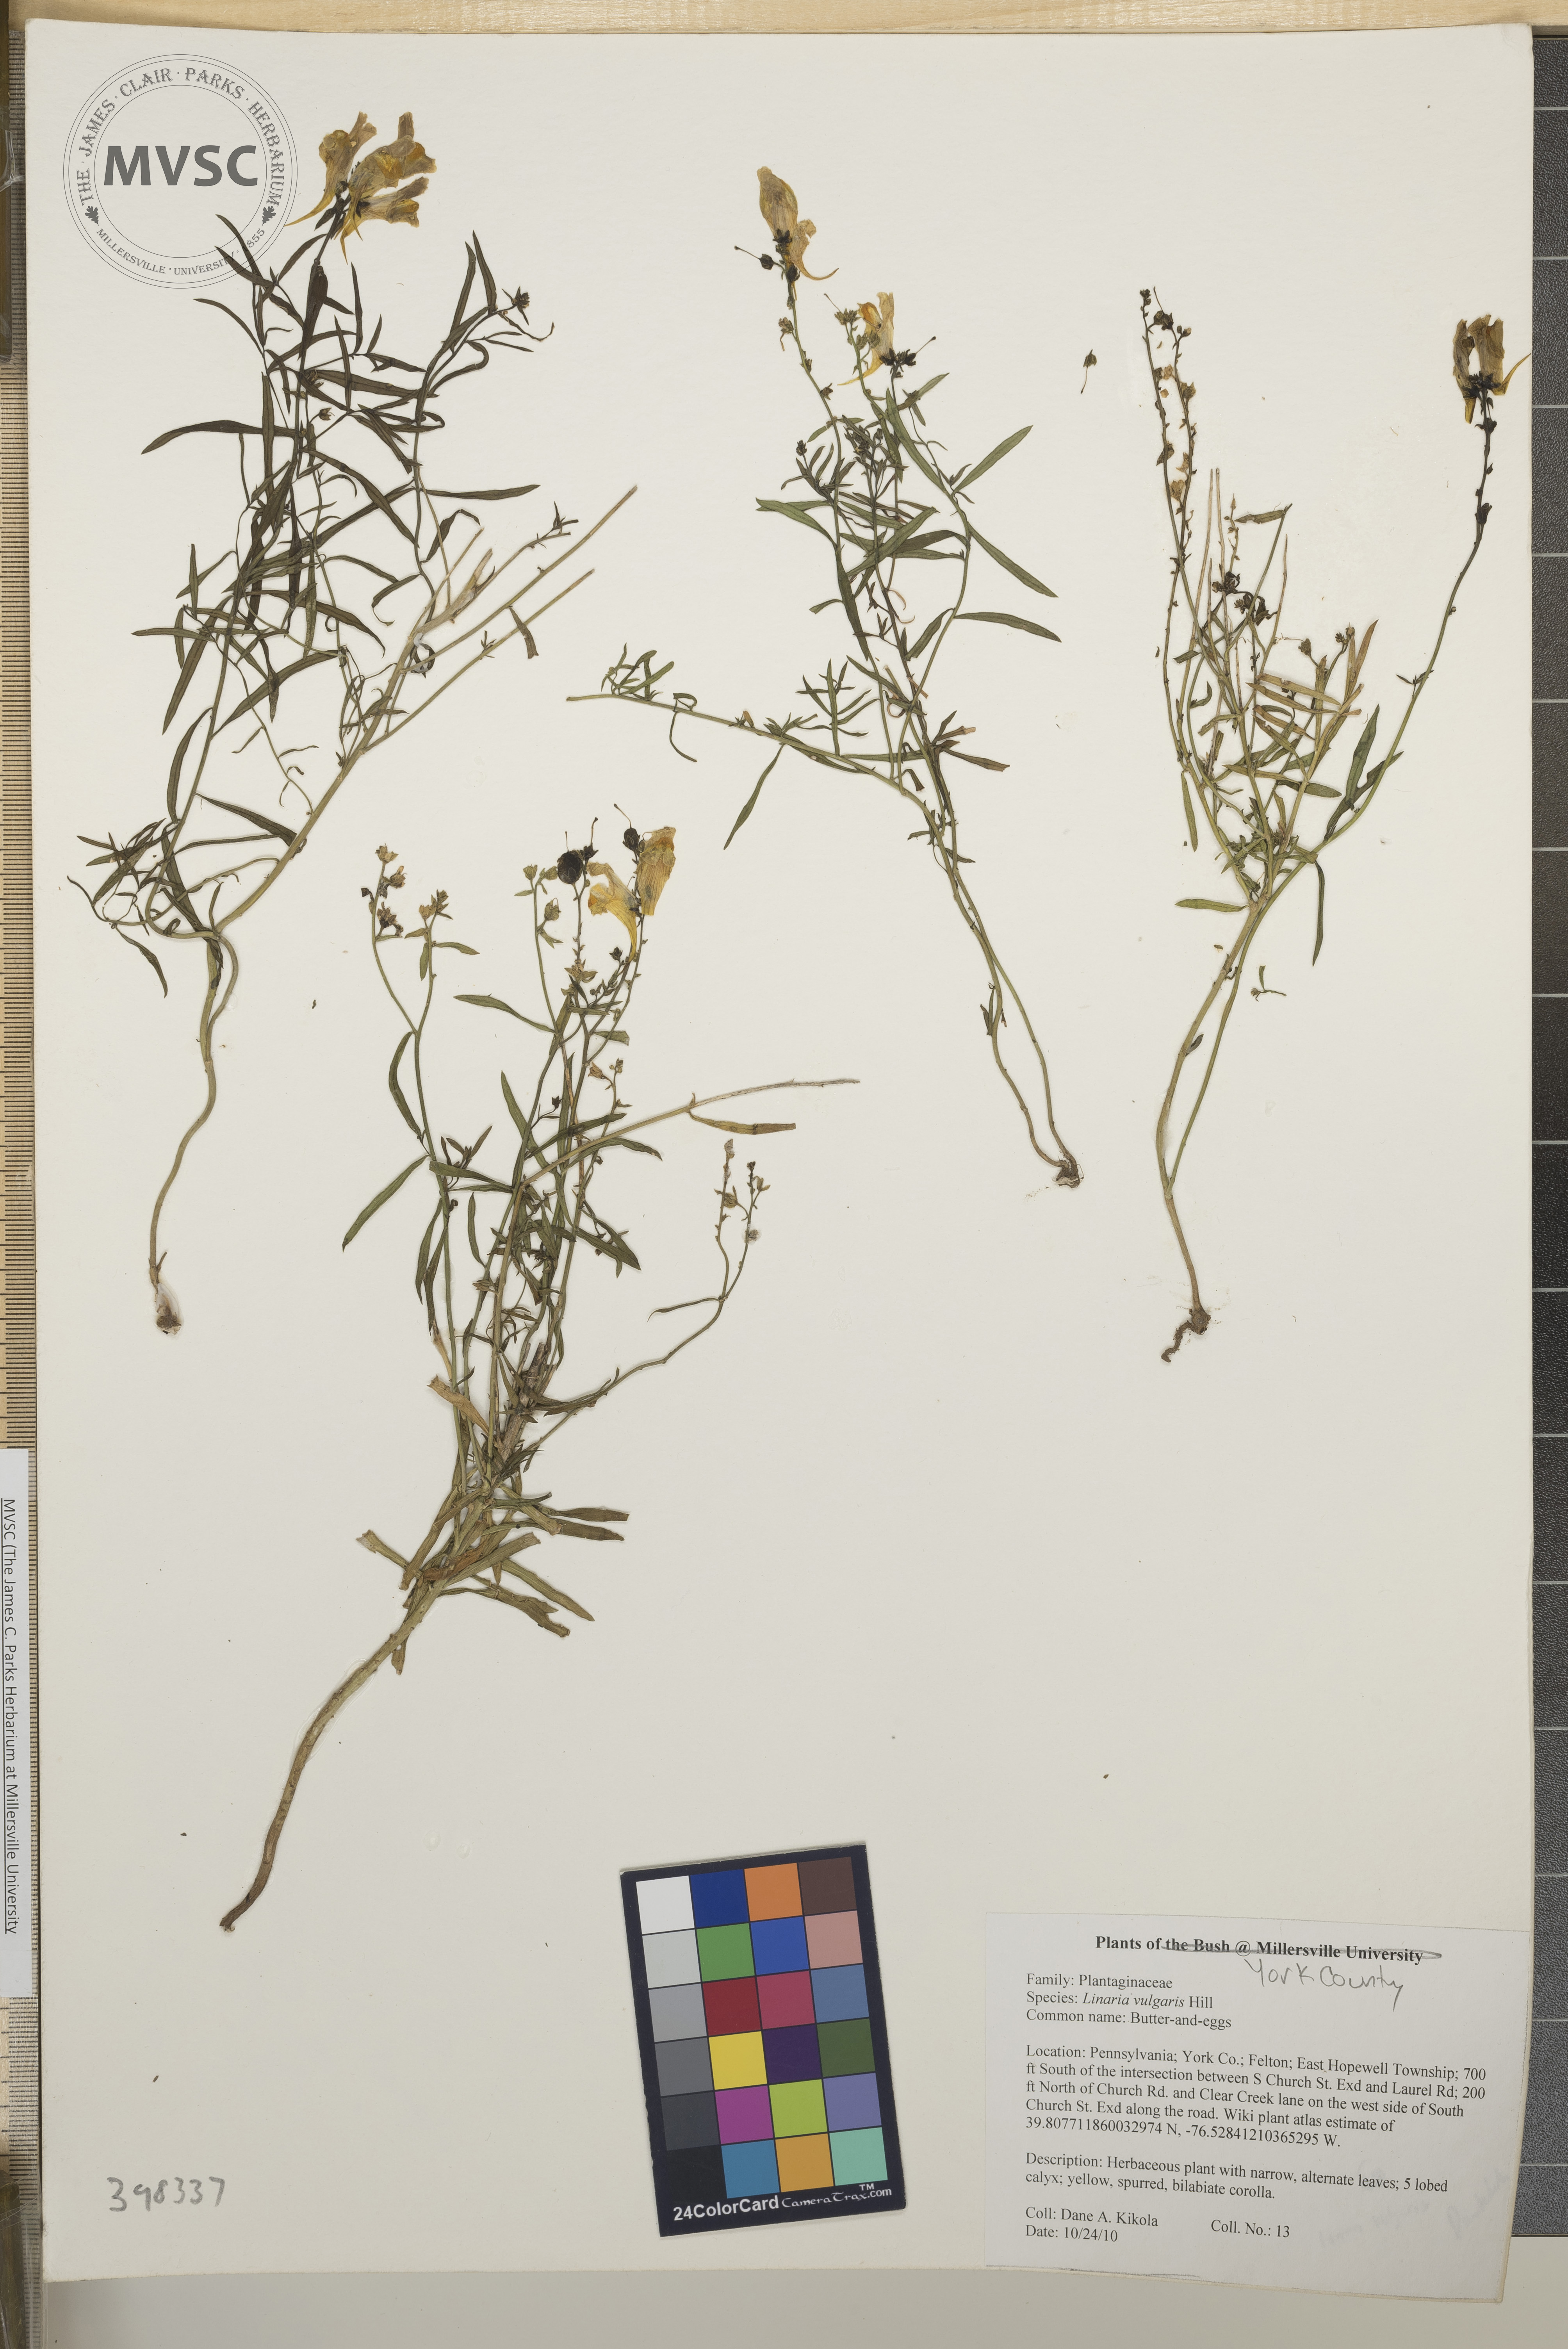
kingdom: Plantae
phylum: Tracheophyta
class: Magnoliopsida
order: Lamiales
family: Plantaginaceae
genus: Linaria
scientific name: Linaria vulgaris
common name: Butter-and-eggs
